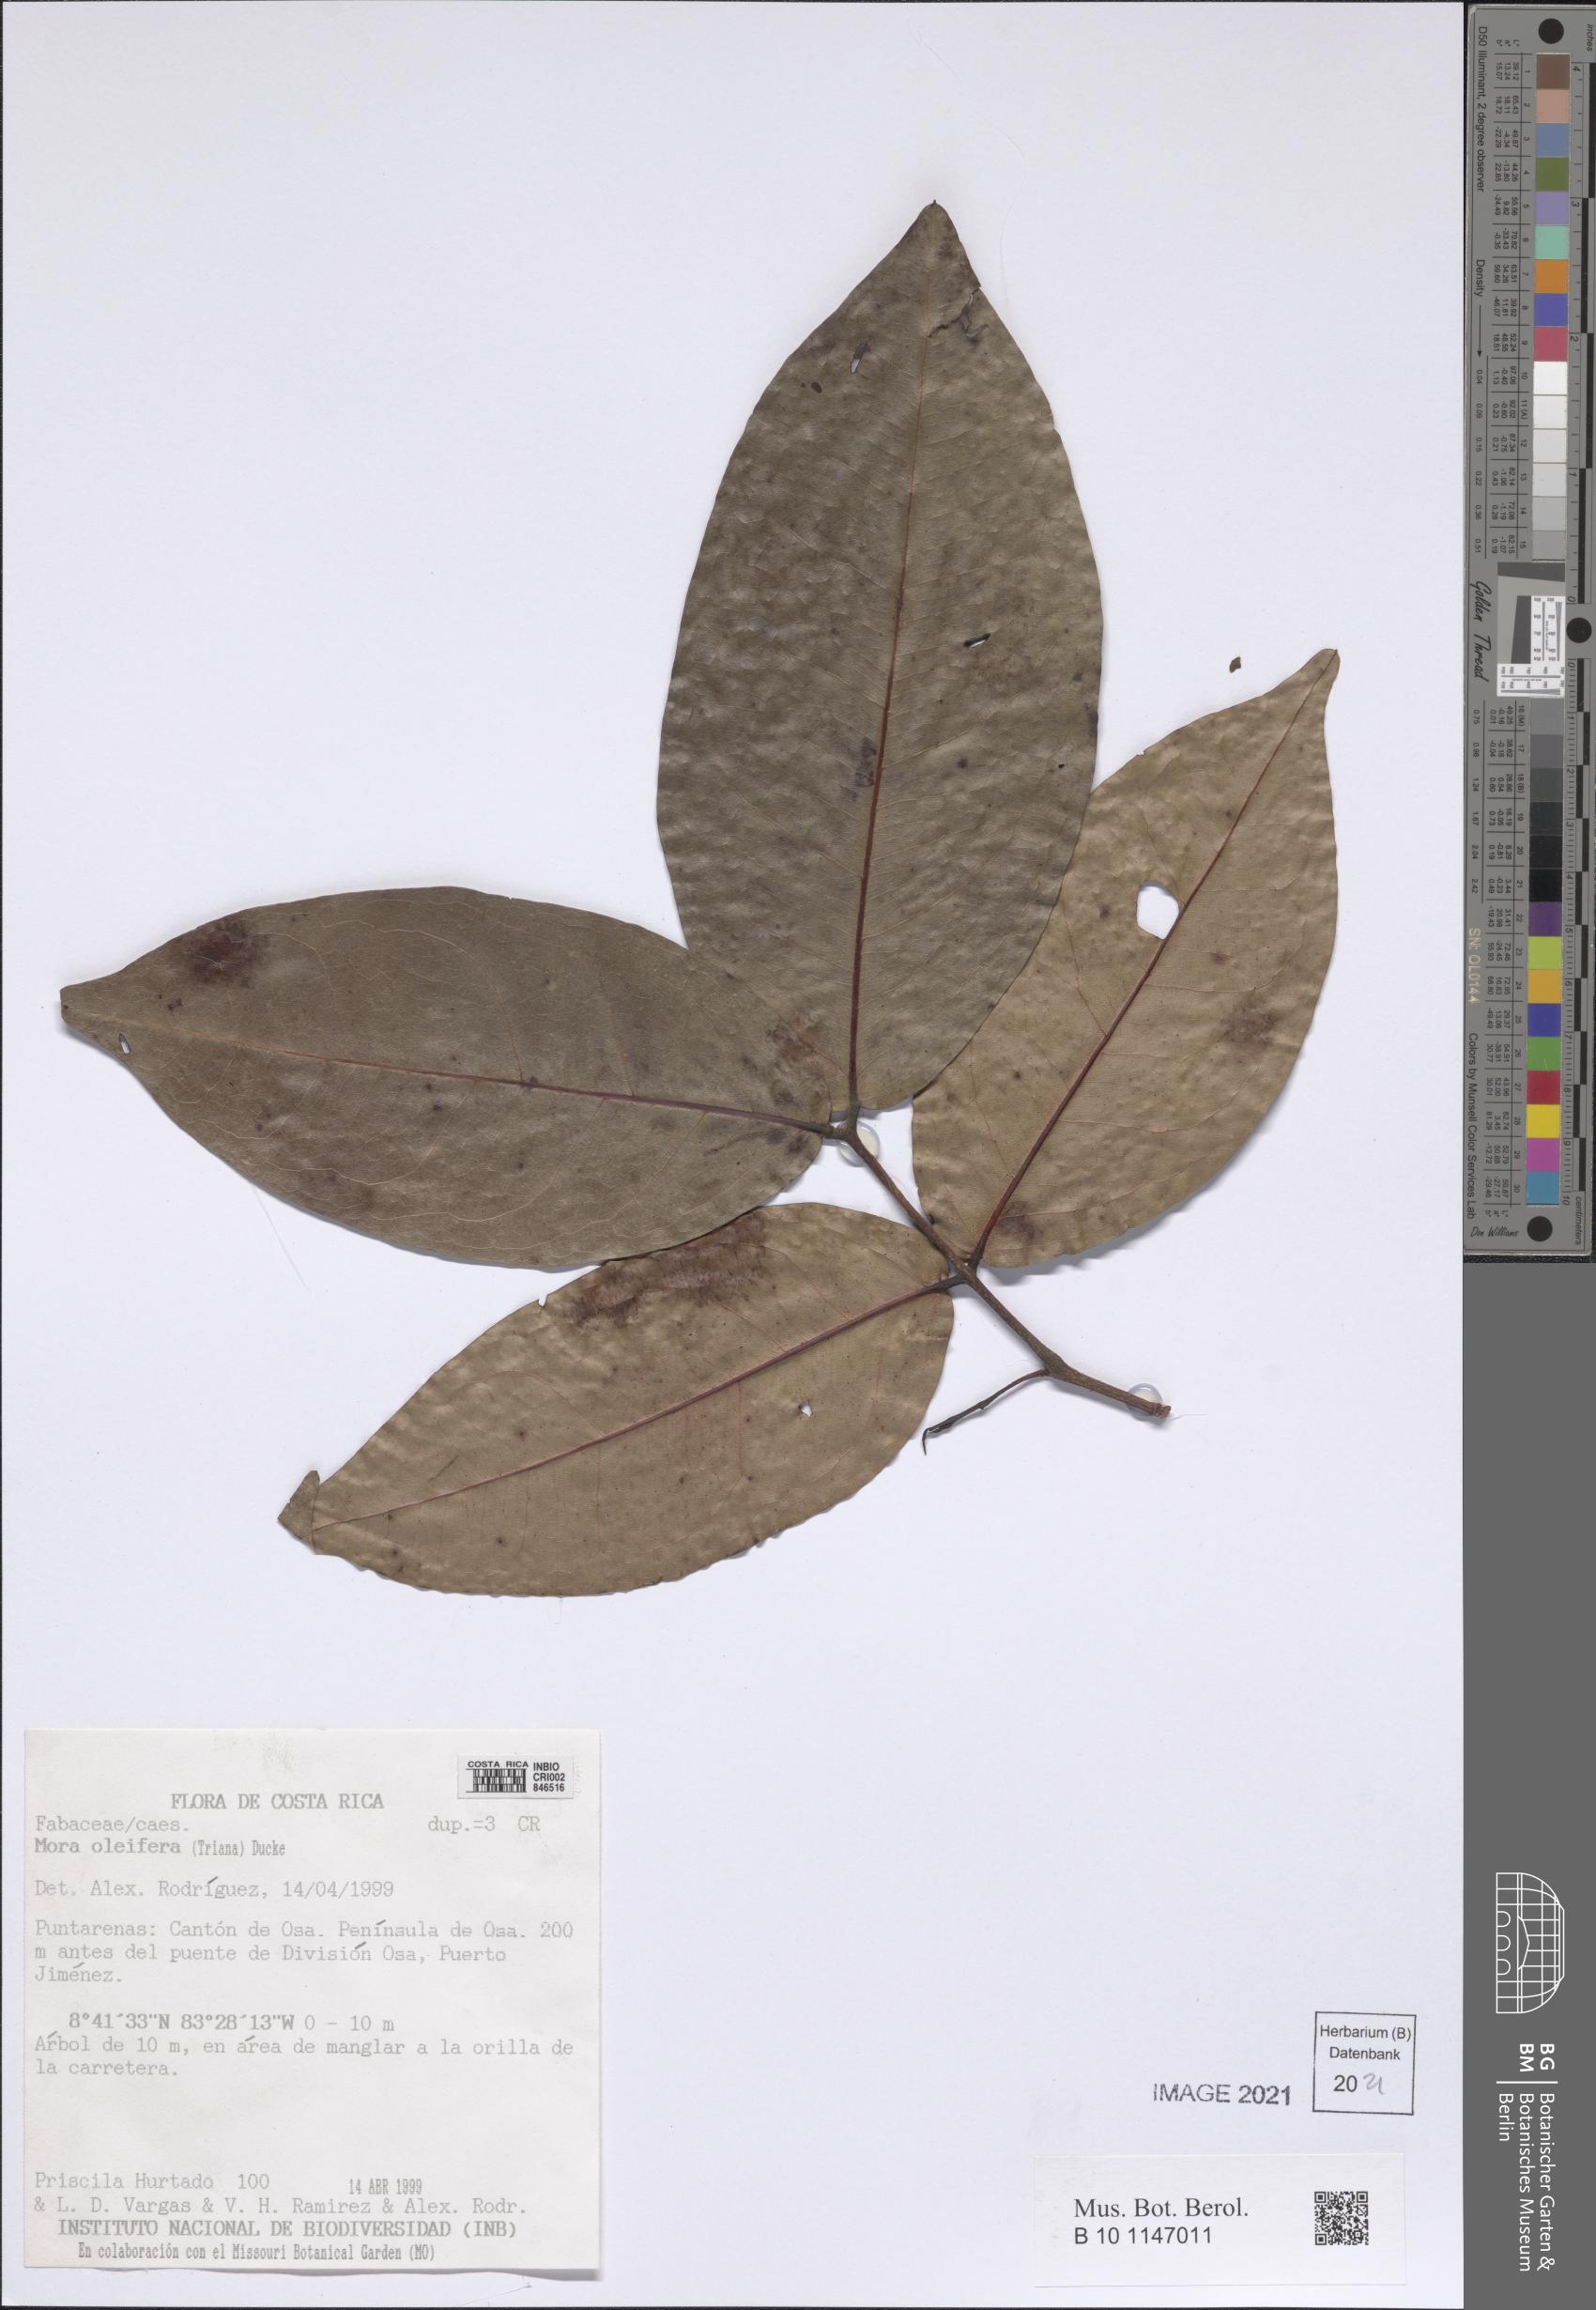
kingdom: Plantae
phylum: Tracheophyta
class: Magnoliopsida
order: Fabales
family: Fabaceae
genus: Mora
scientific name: Mora oleifera
